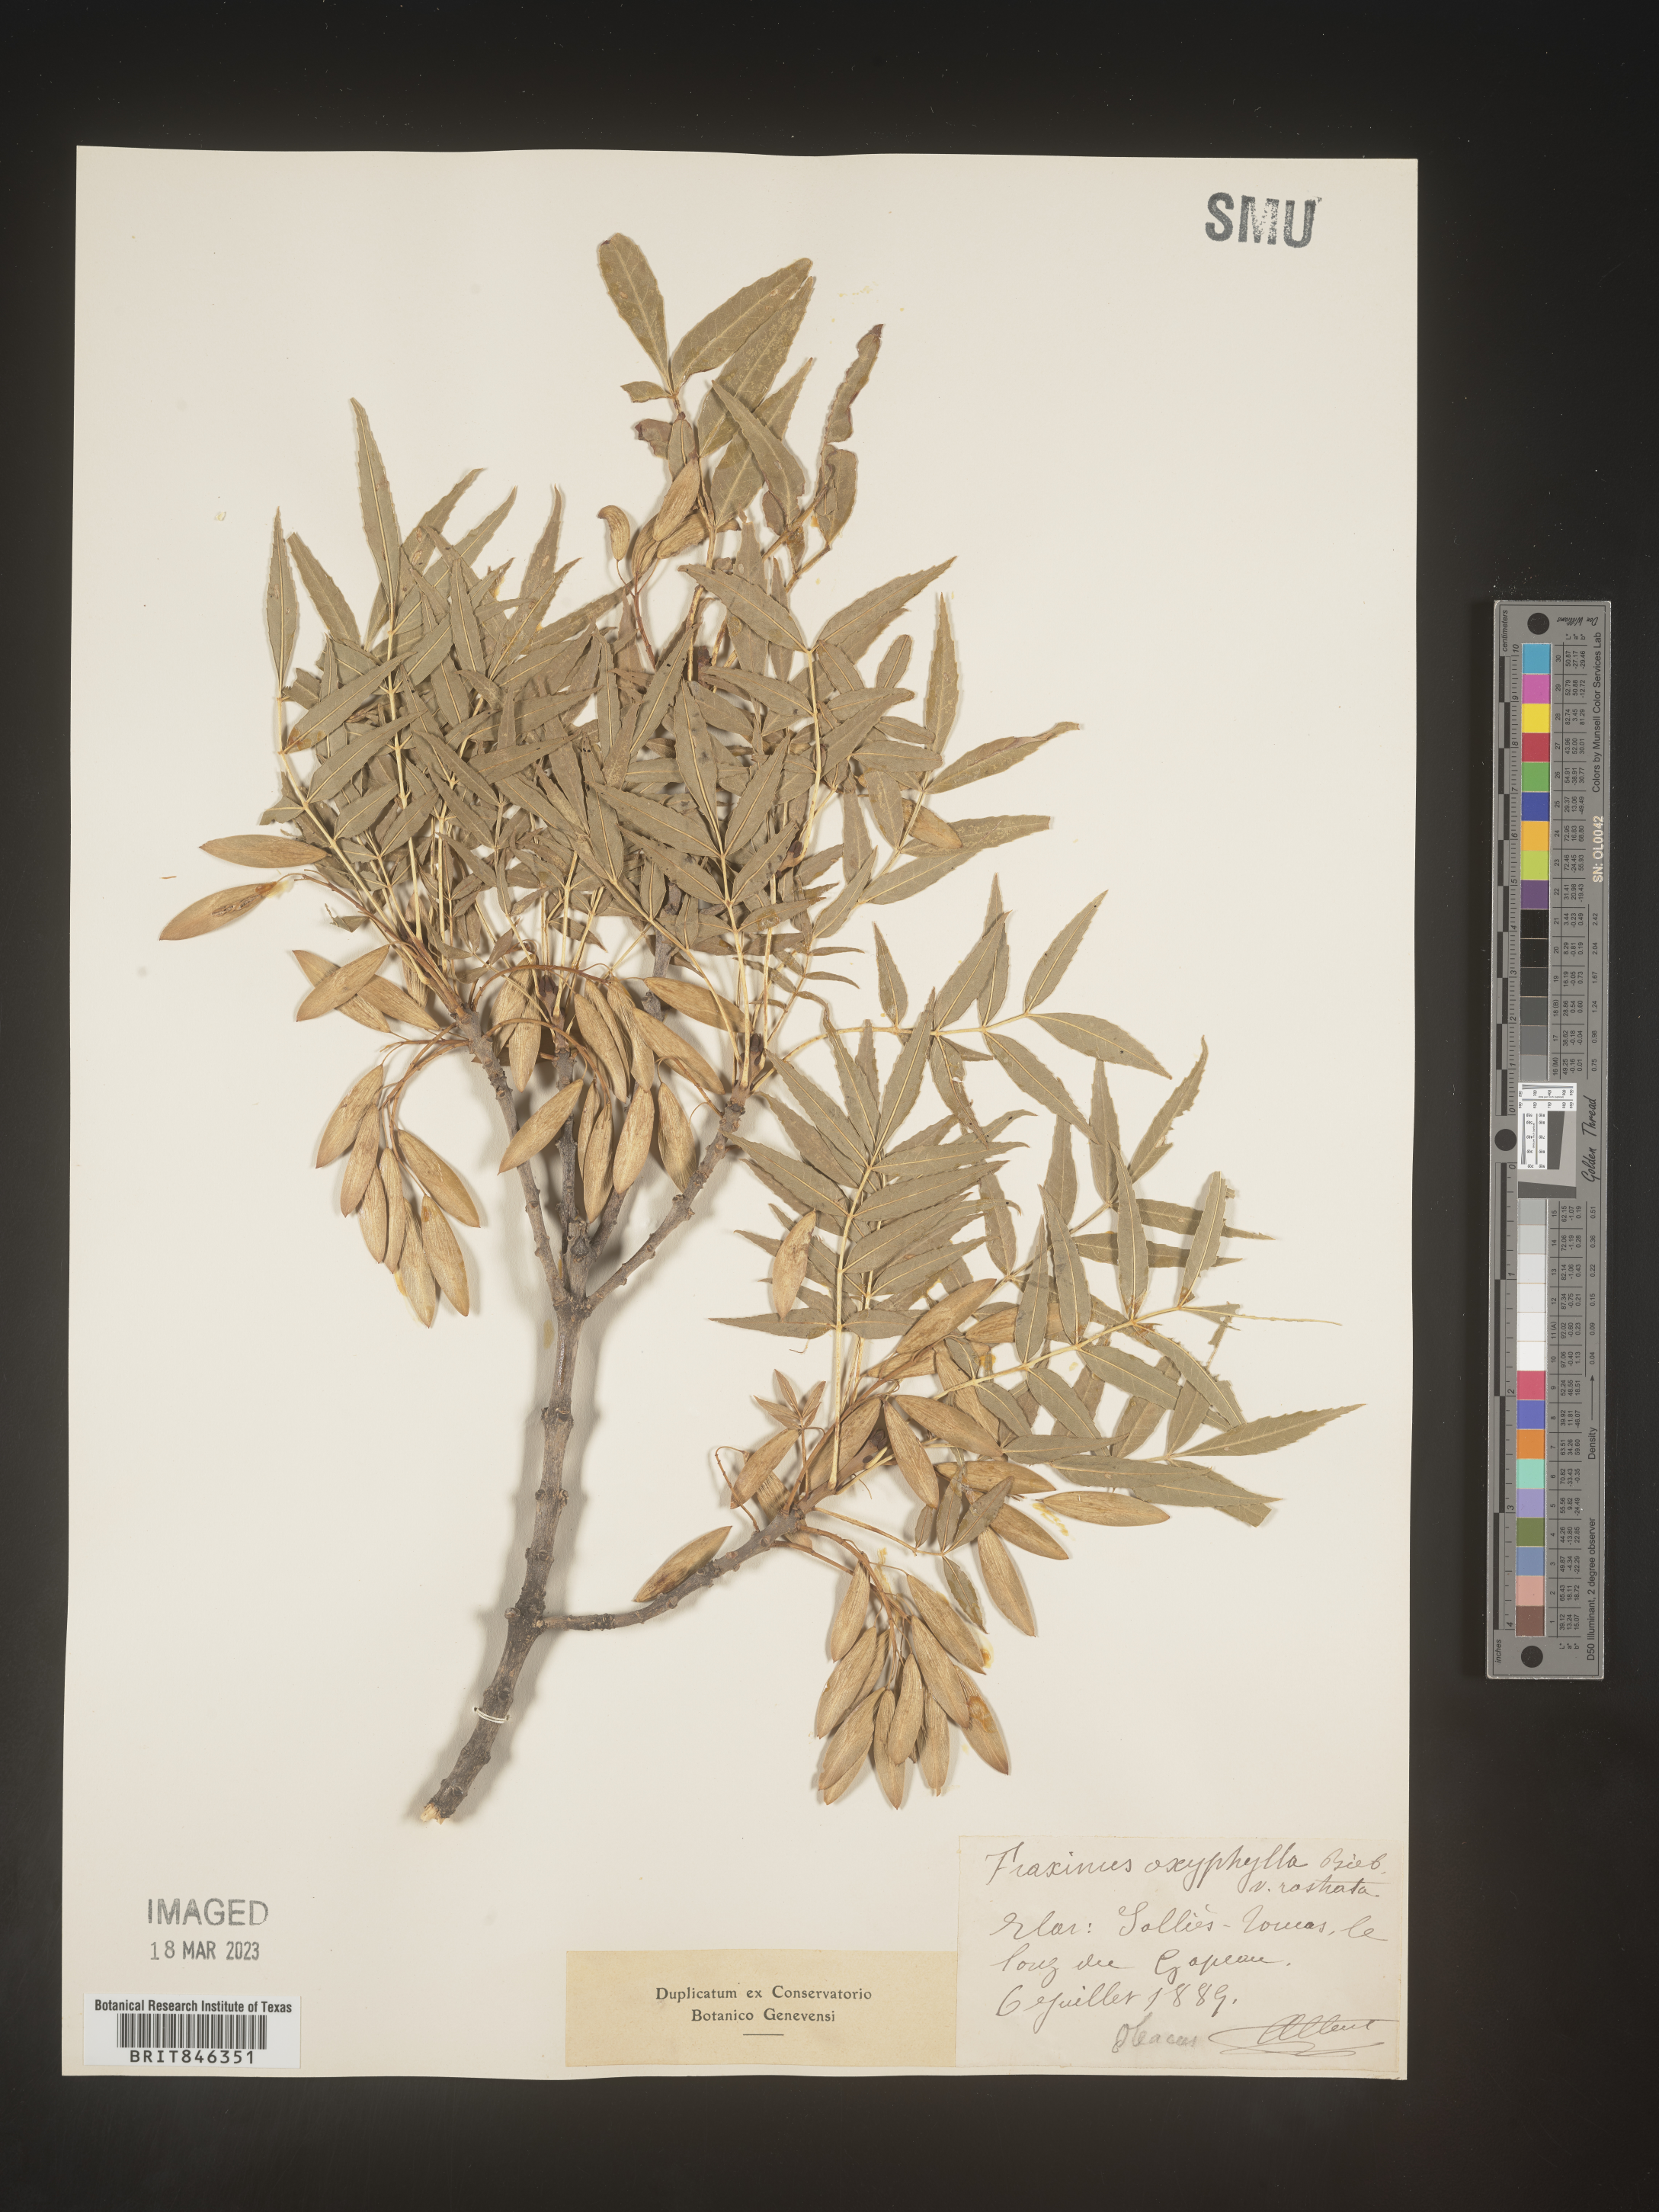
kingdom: Plantae
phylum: Tracheophyta
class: Magnoliopsida
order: Lamiales
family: Oleaceae
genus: Fraxinus
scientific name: Fraxinus
